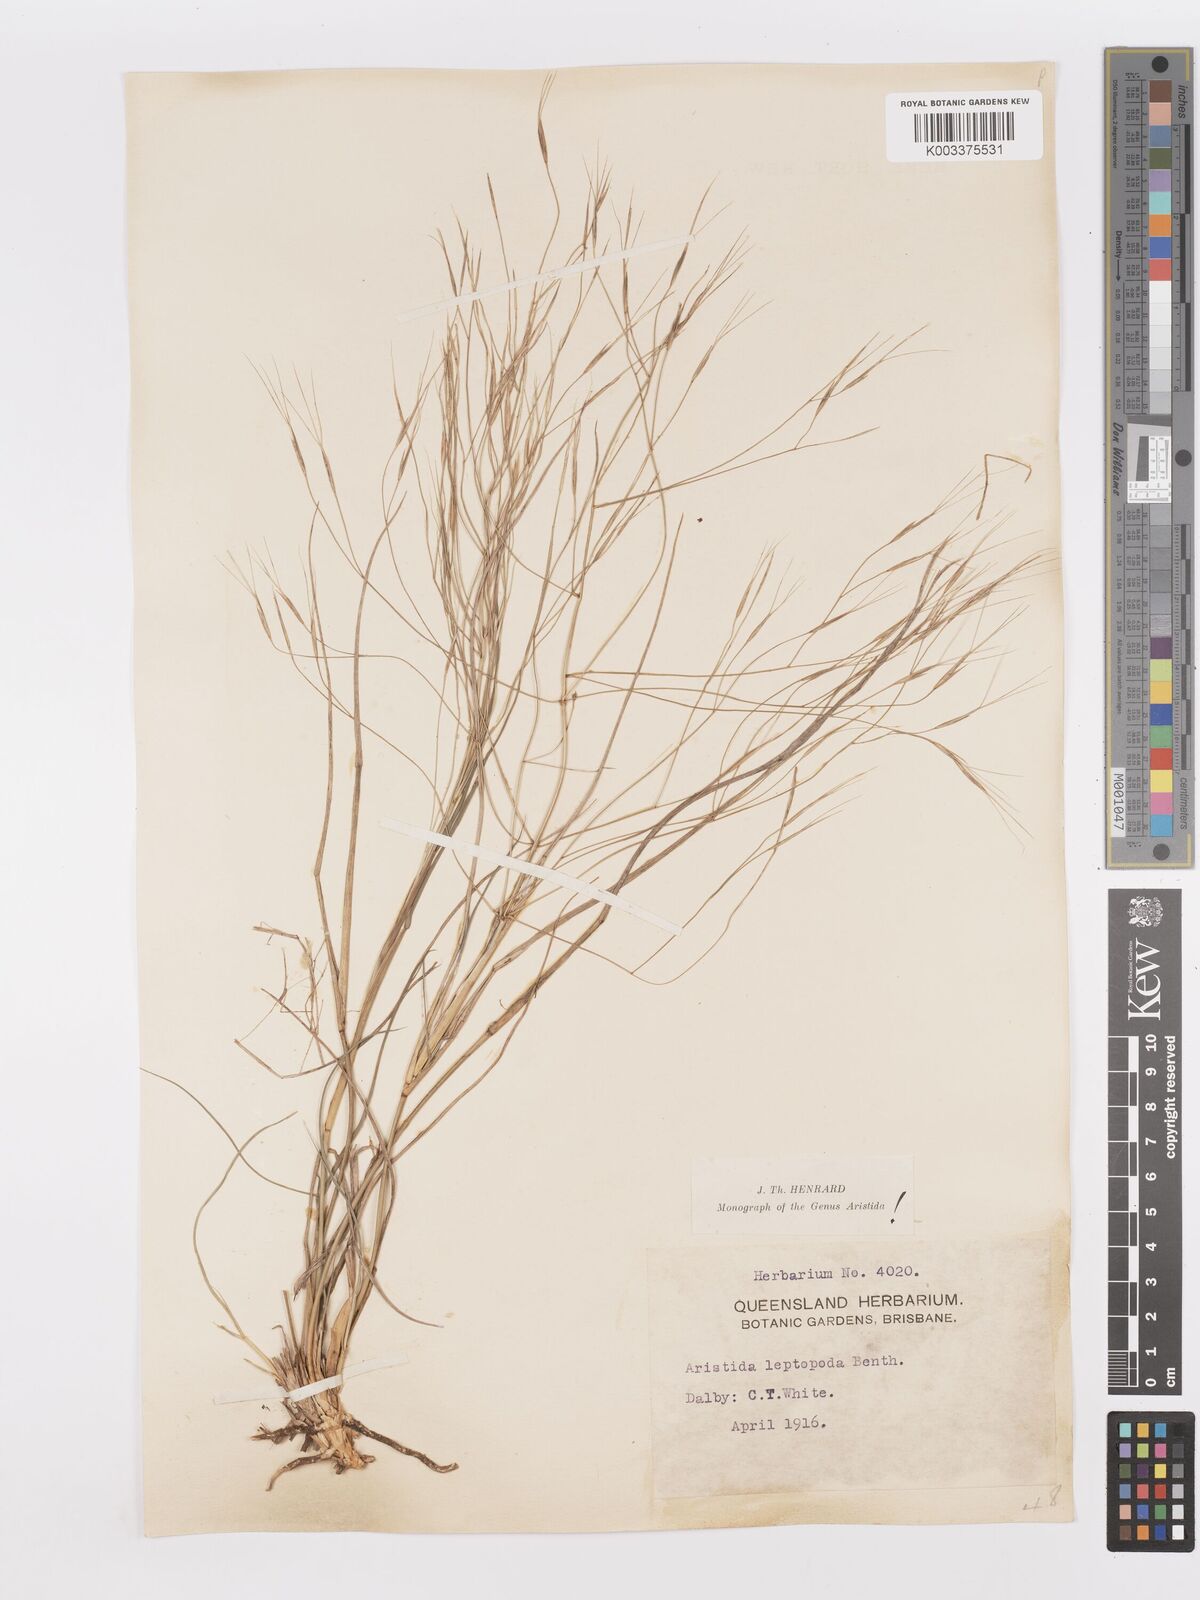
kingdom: Plantae
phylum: Tracheophyta
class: Liliopsida
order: Poales
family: Poaceae
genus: Aristida
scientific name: Aristida leptopoda
